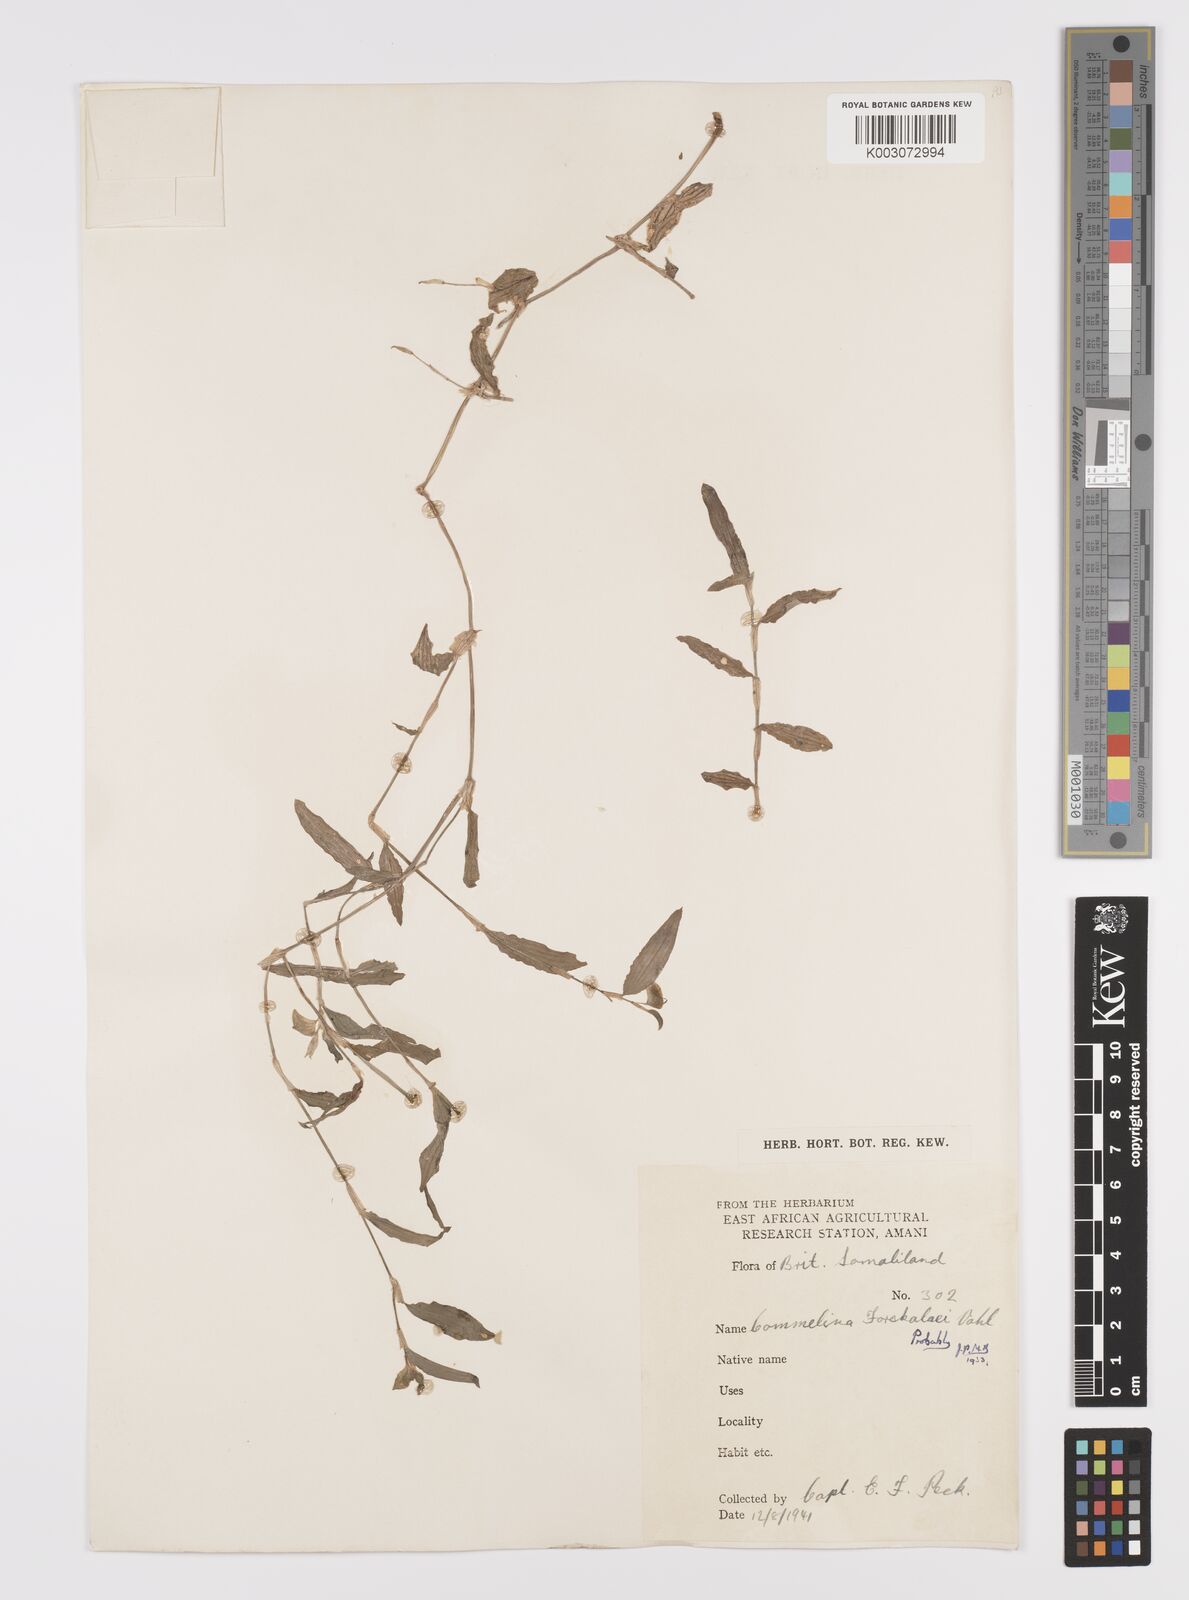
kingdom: Plantae
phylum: Tracheophyta
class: Liliopsida
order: Commelinales
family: Commelinaceae
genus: Commelina
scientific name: Commelina forskaolii
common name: Rat's ear
